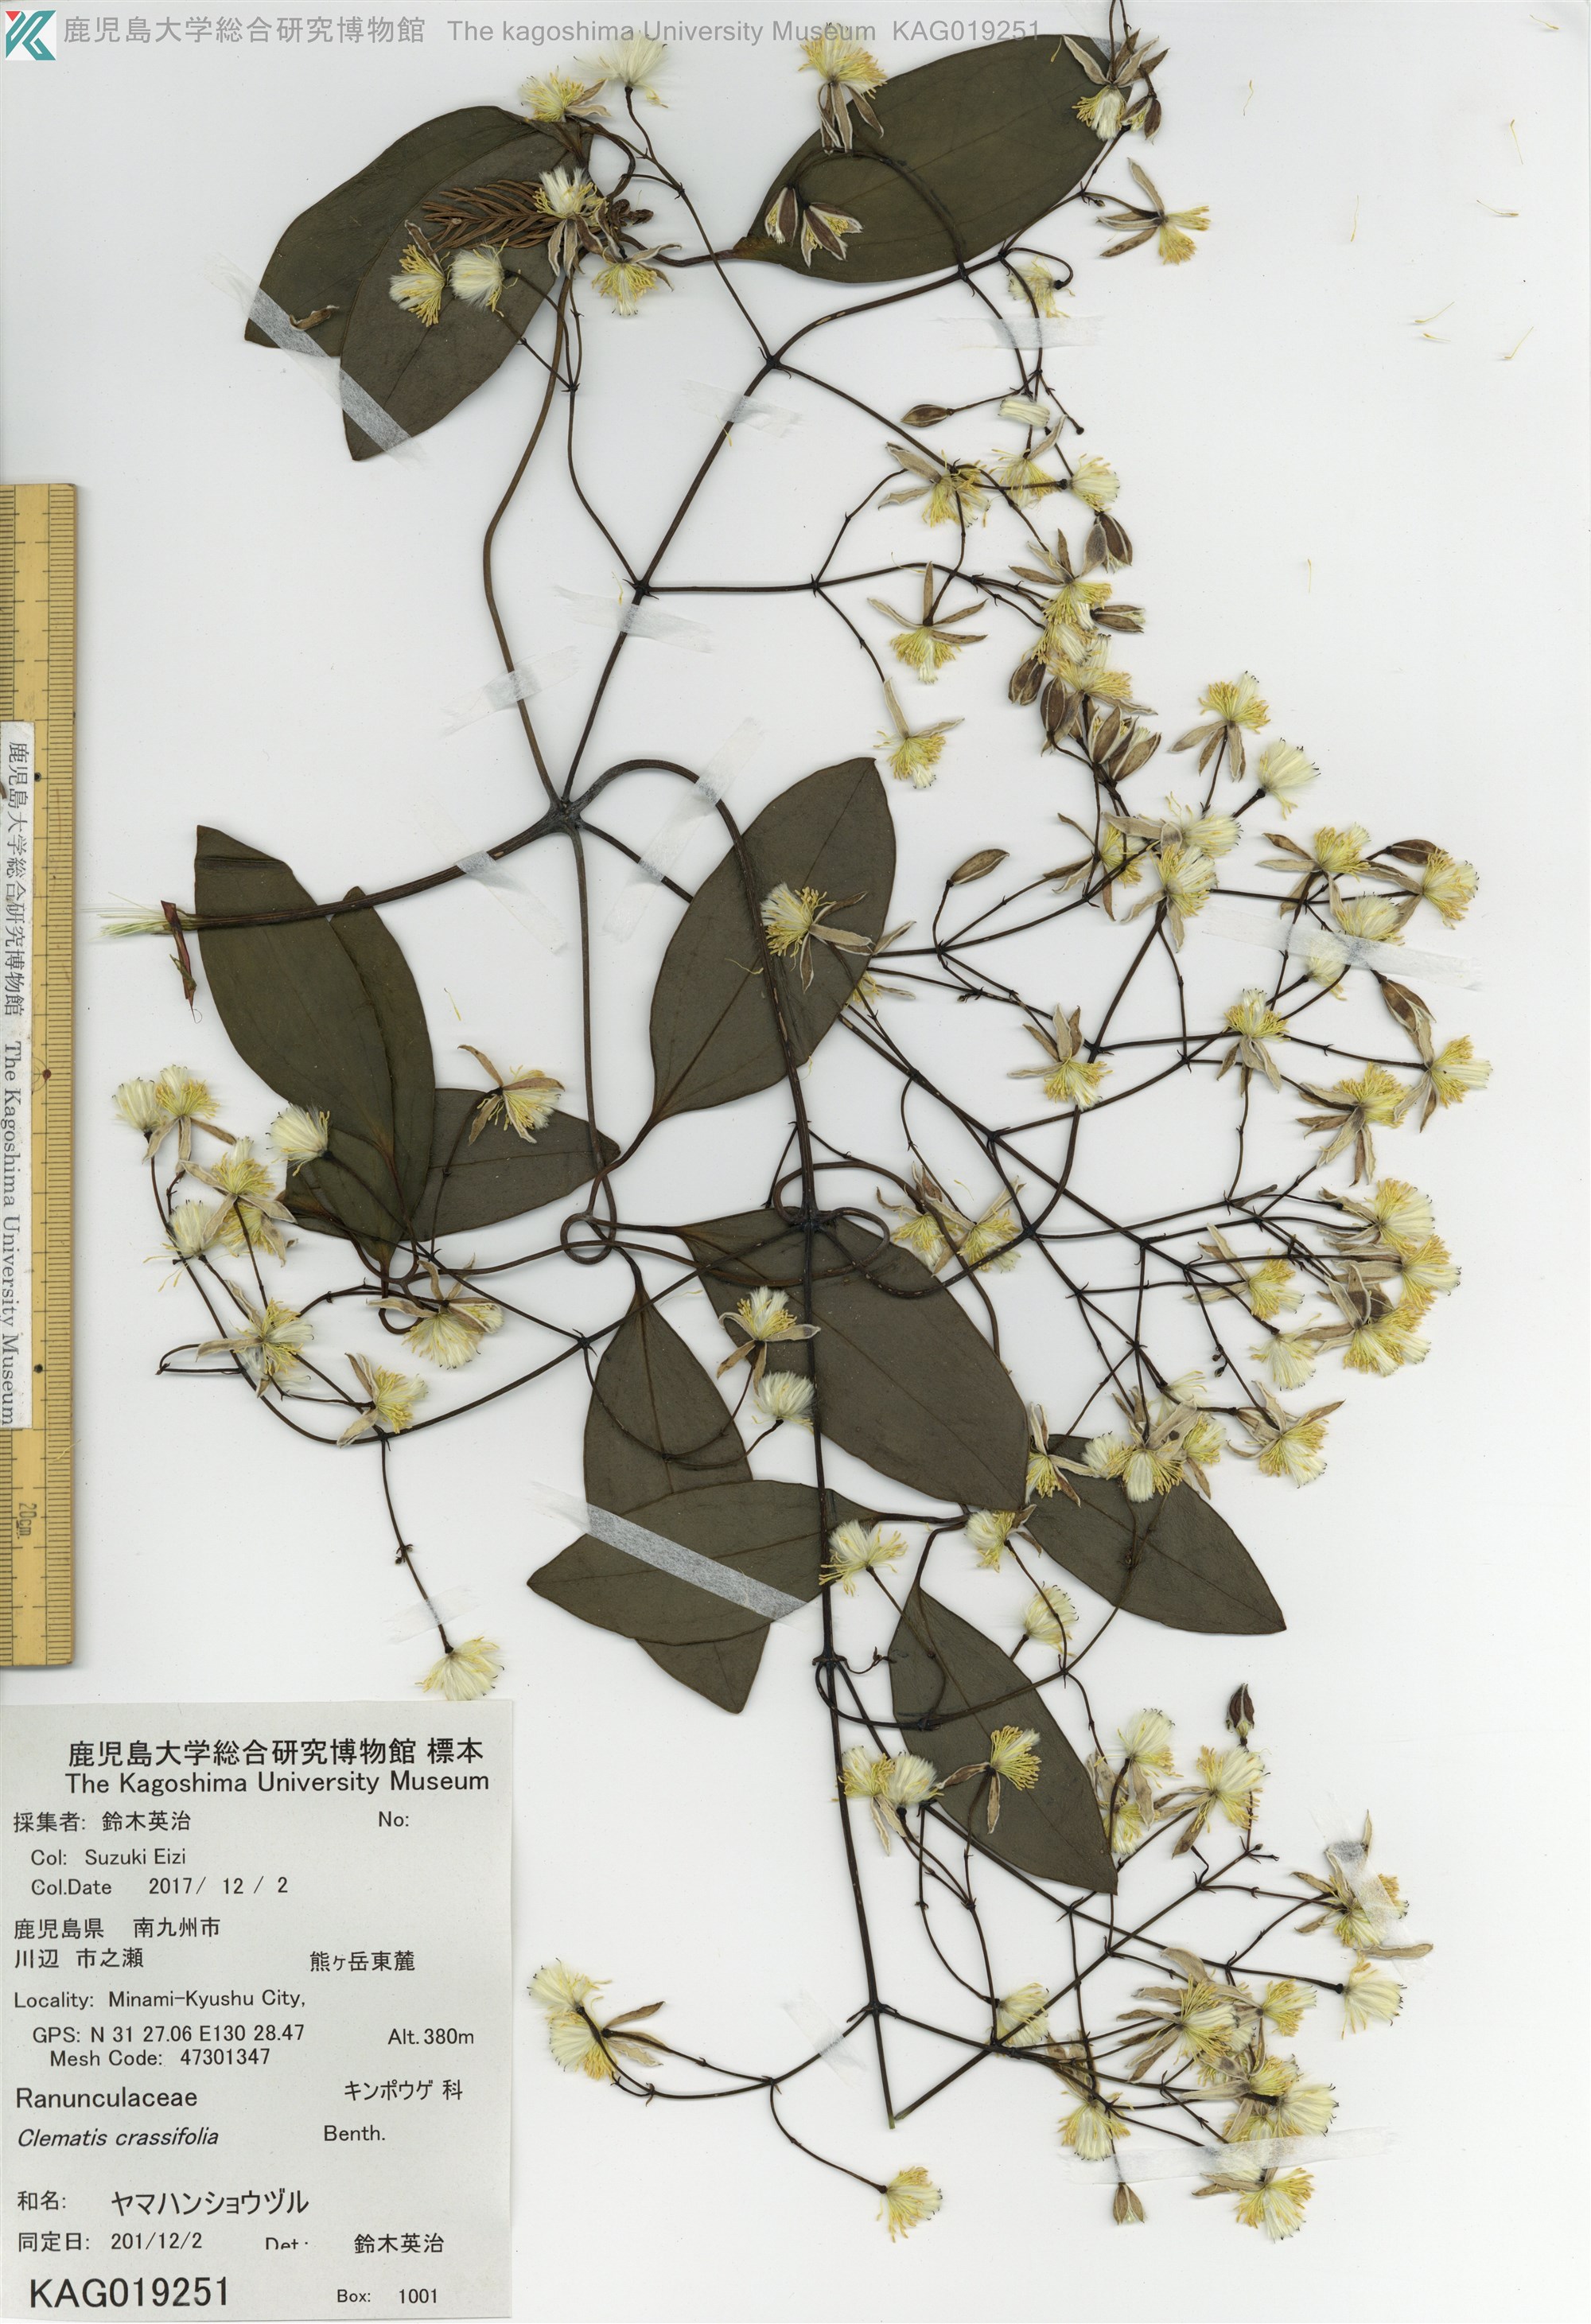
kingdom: Plantae
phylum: Tracheophyta
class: Magnoliopsida
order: Ranunculales
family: Ranunculaceae
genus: Clematis
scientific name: Clematis crassifolia
